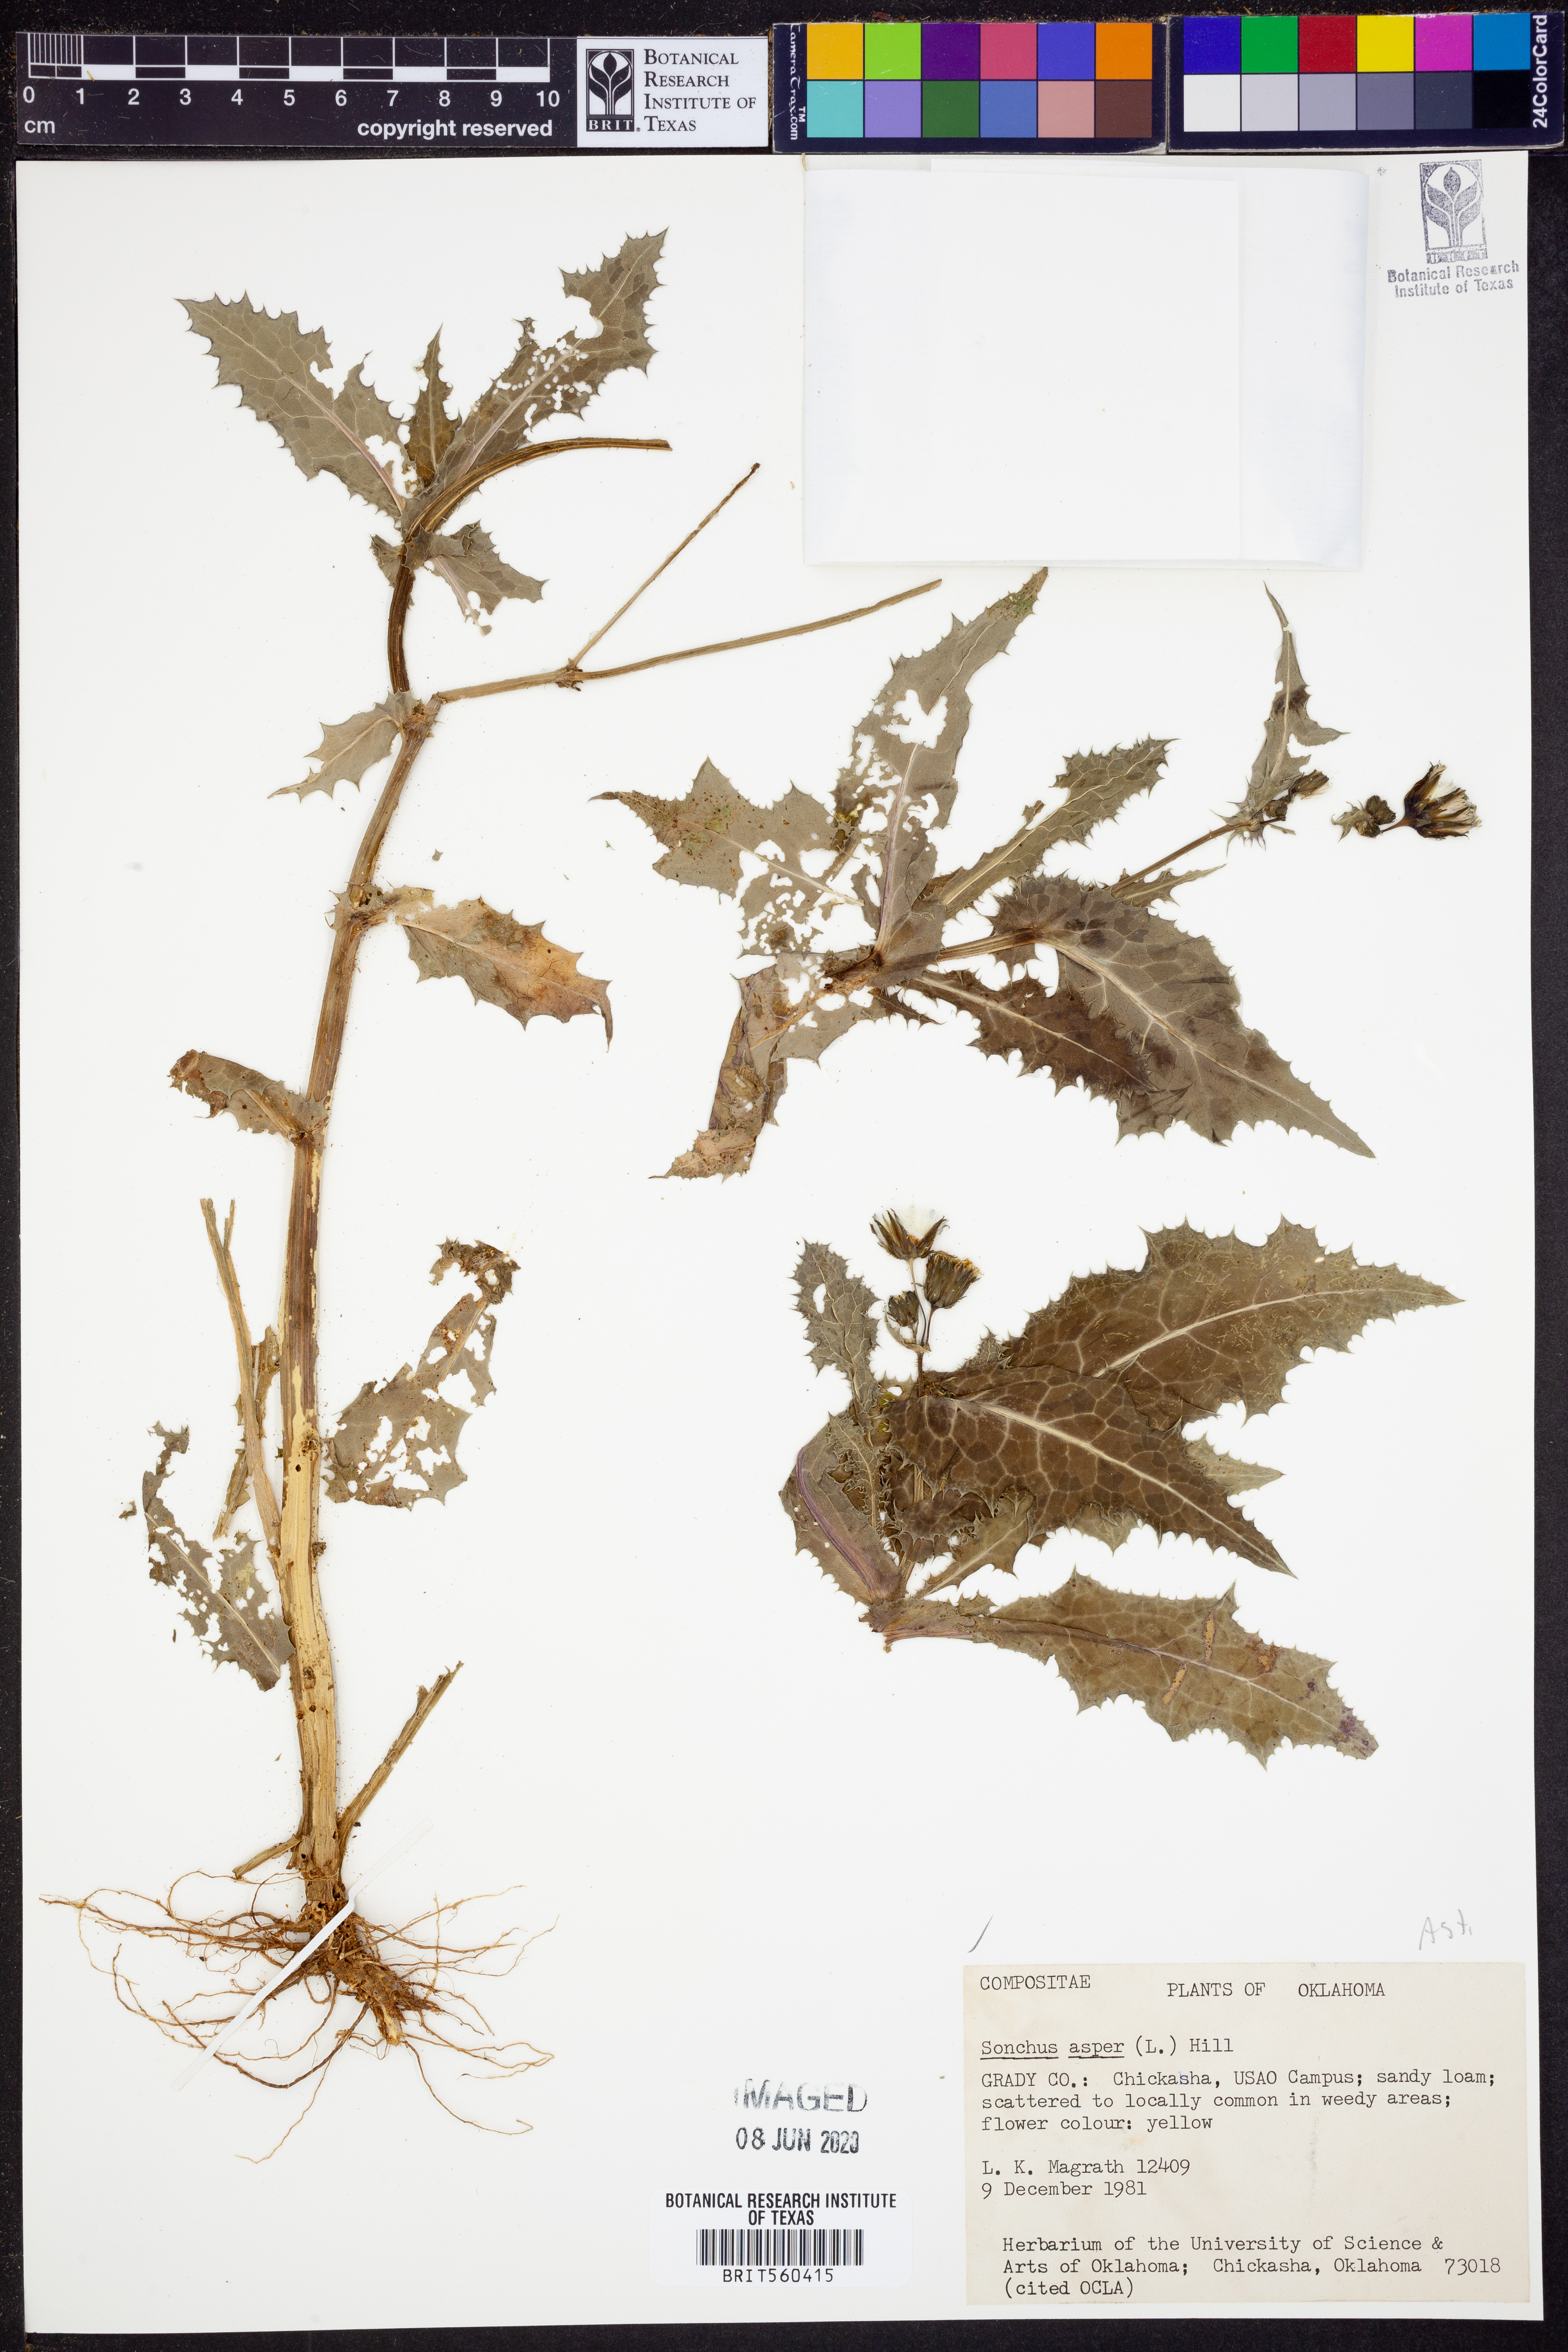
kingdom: Plantae
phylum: Tracheophyta
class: Magnoliopsida
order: Asterales
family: Asteraceae
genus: Sonchus
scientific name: Sonchus asper
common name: Prickly sow-thistle
